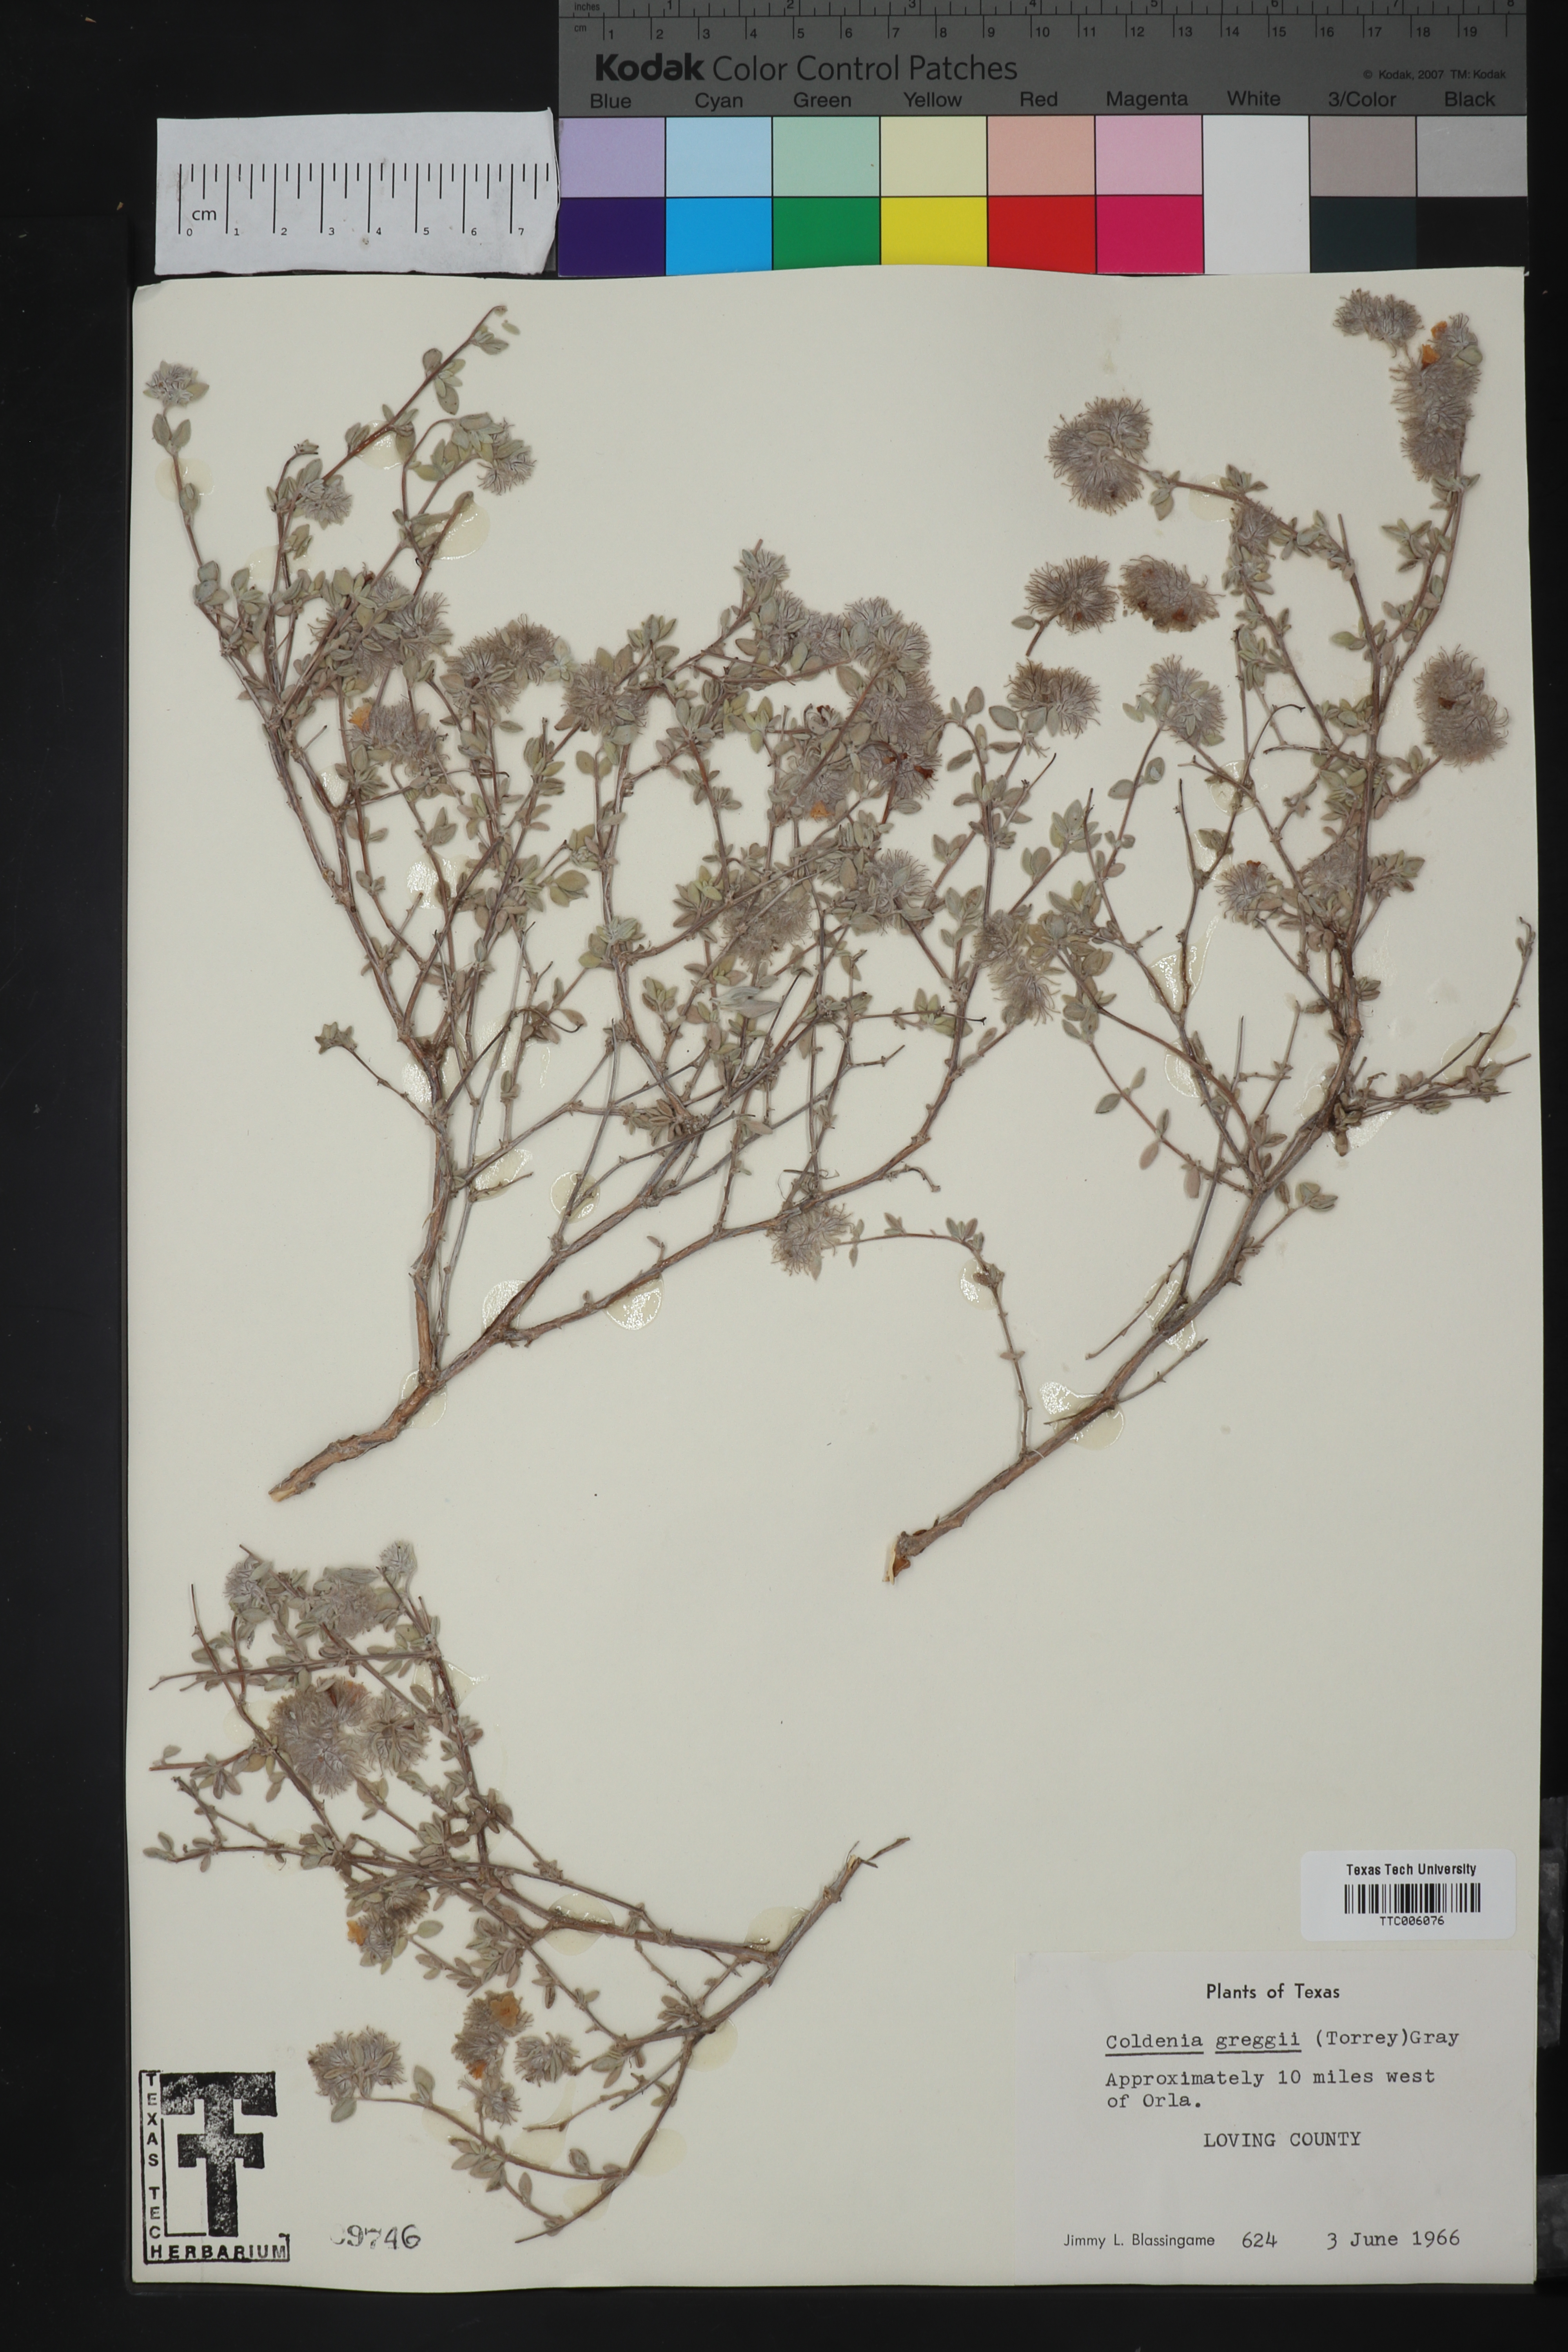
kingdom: Plantae
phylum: Tracheophyta
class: Magnoliopsida
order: Boraginales
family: Ehretiaceae
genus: Tiquilia
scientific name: Tiquilia greggii
